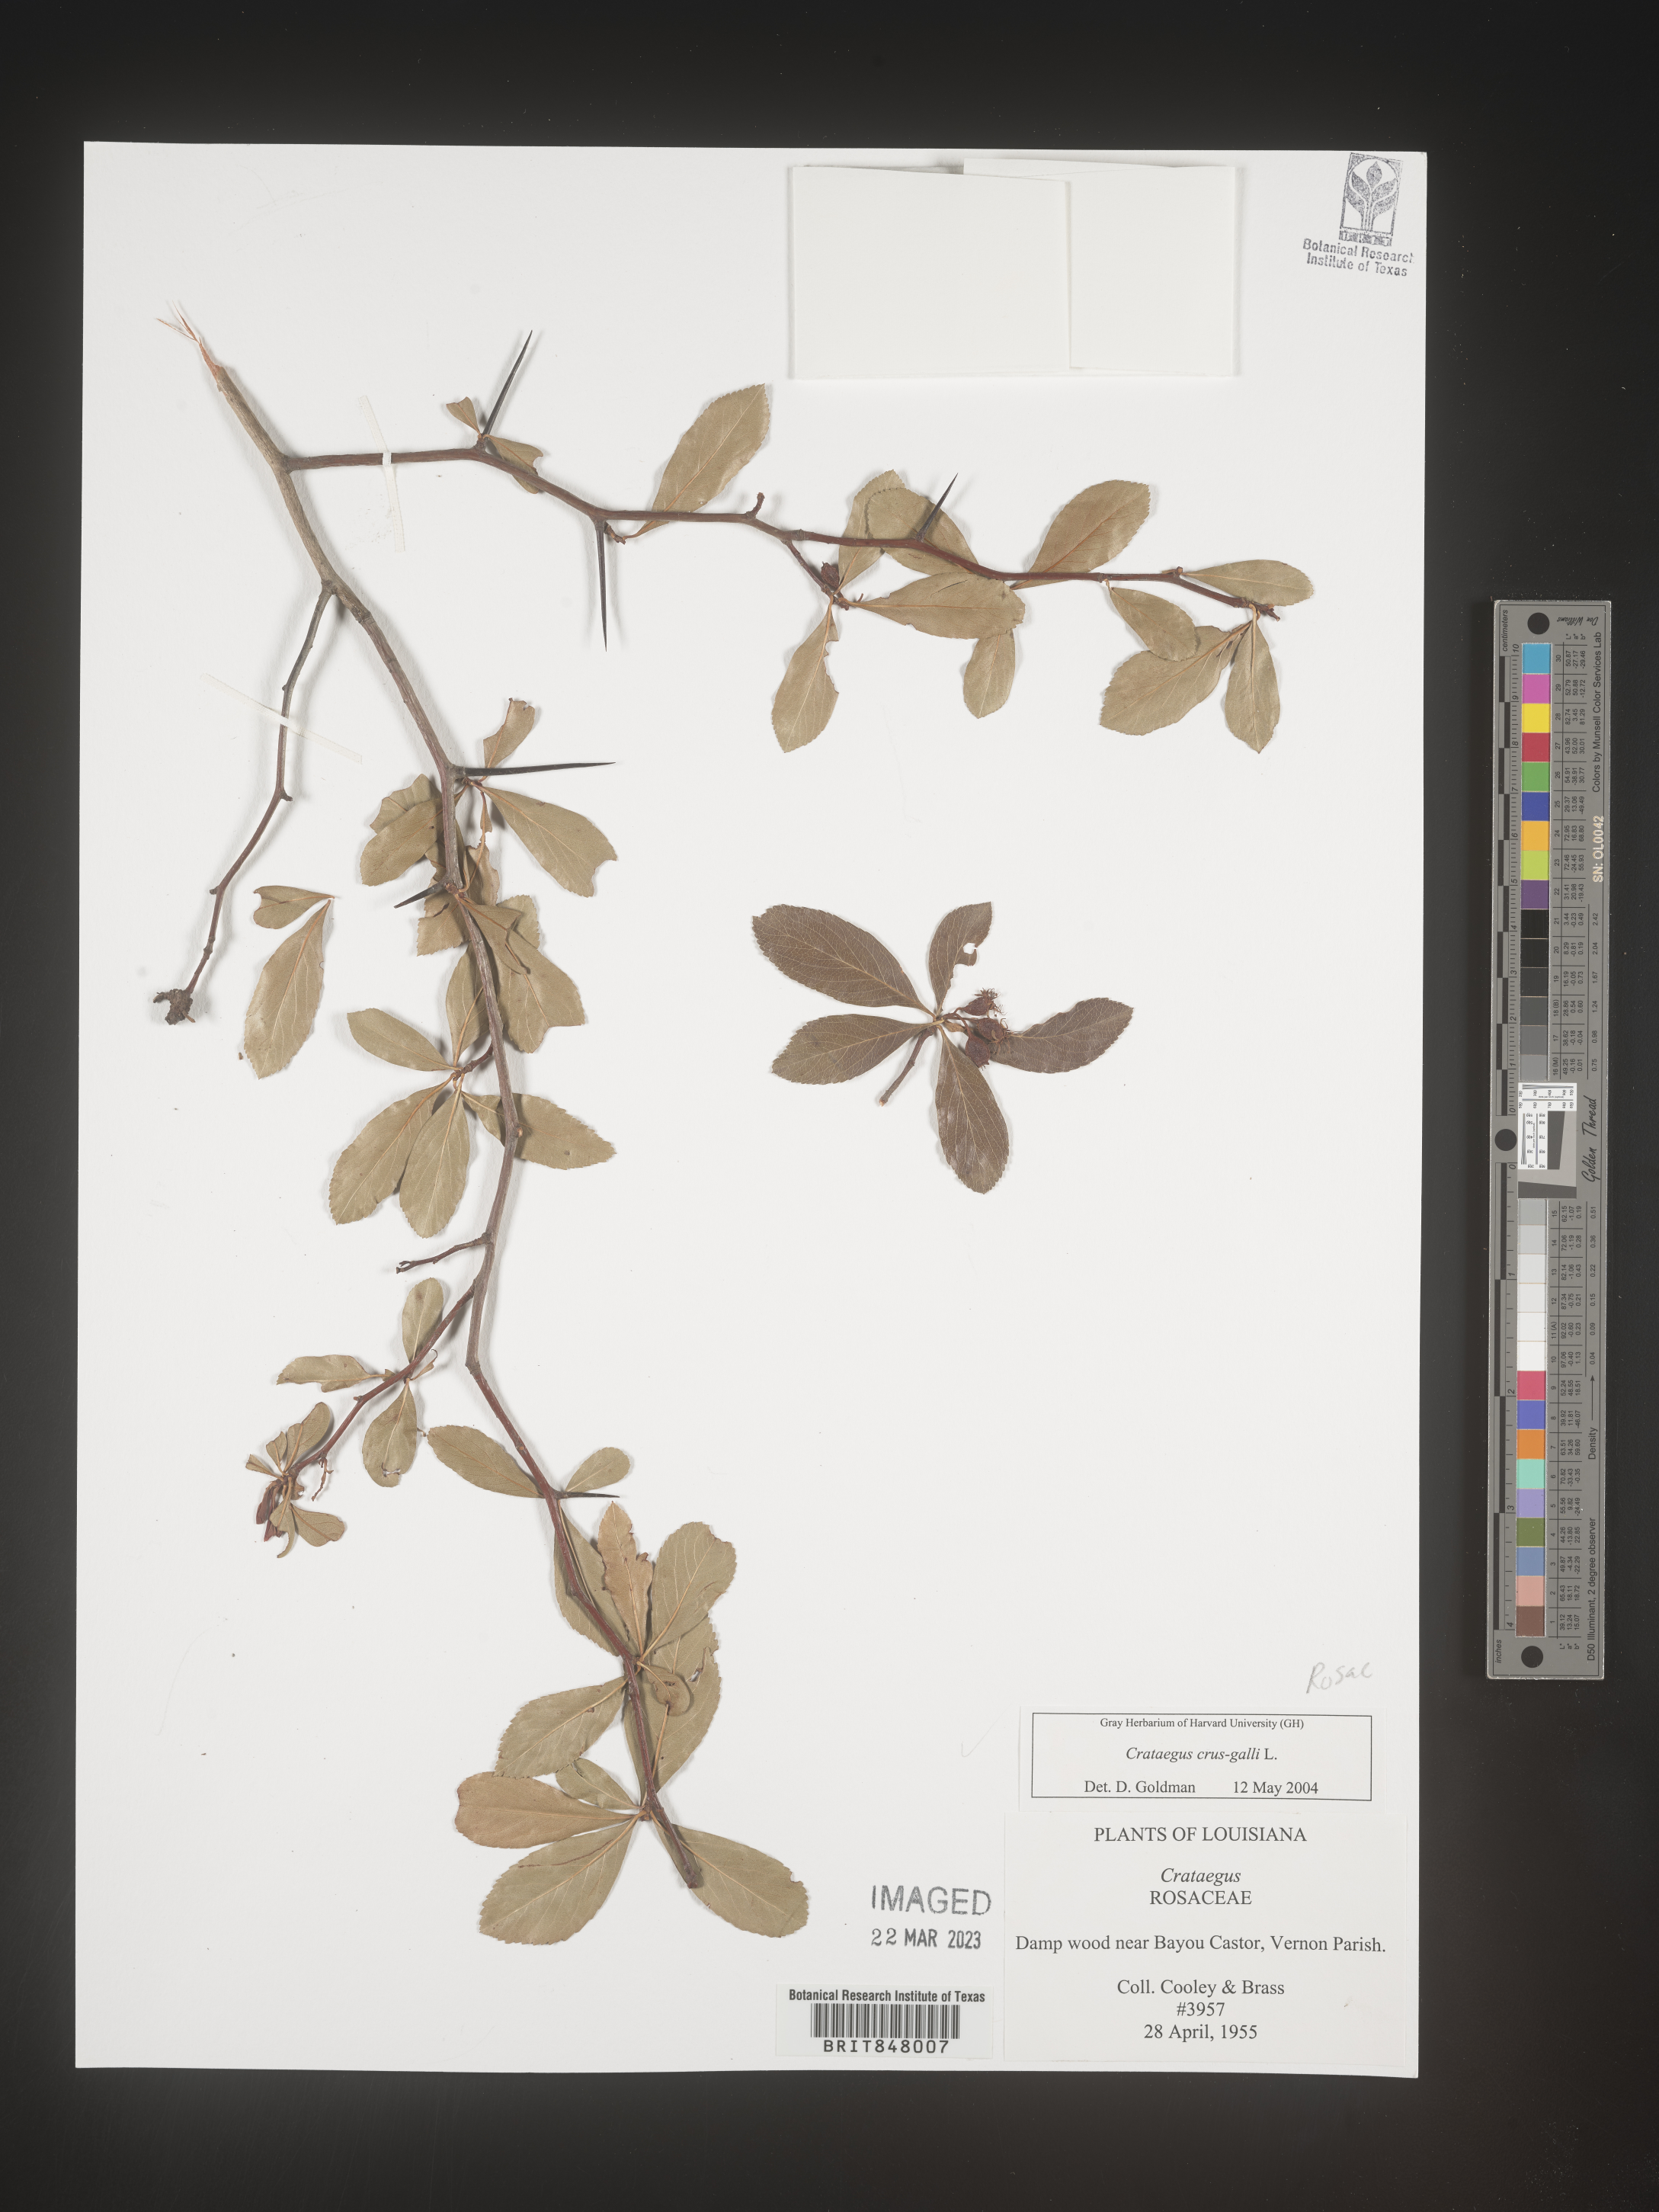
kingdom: Plantae
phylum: Tracheophyta
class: Magnoliopsida
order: Rosales
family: Rosaceae
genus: Crataegus
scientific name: Crataegus crus-galli
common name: Cockspurthorn
